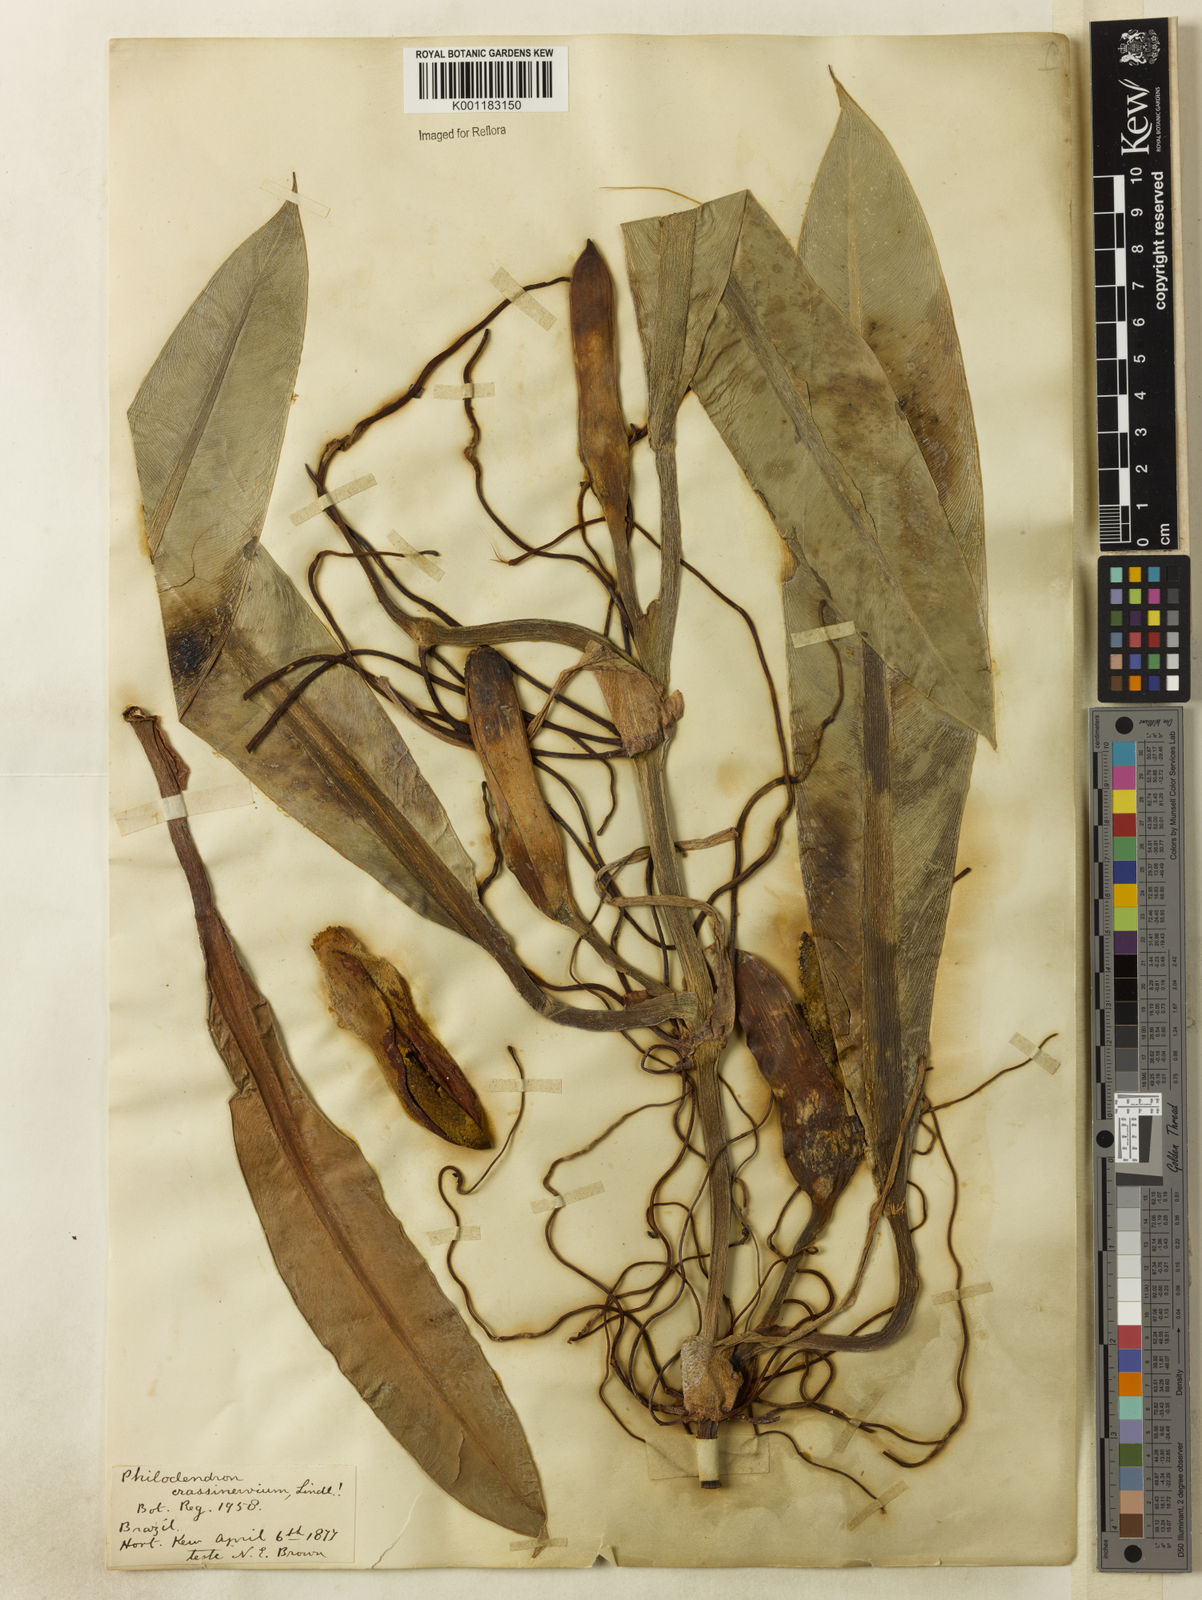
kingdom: Plantae
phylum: Tracheophyta
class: Liliopsida
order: Alismatales
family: Araceae
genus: Philodendron
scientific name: Philodendron crassinervium
